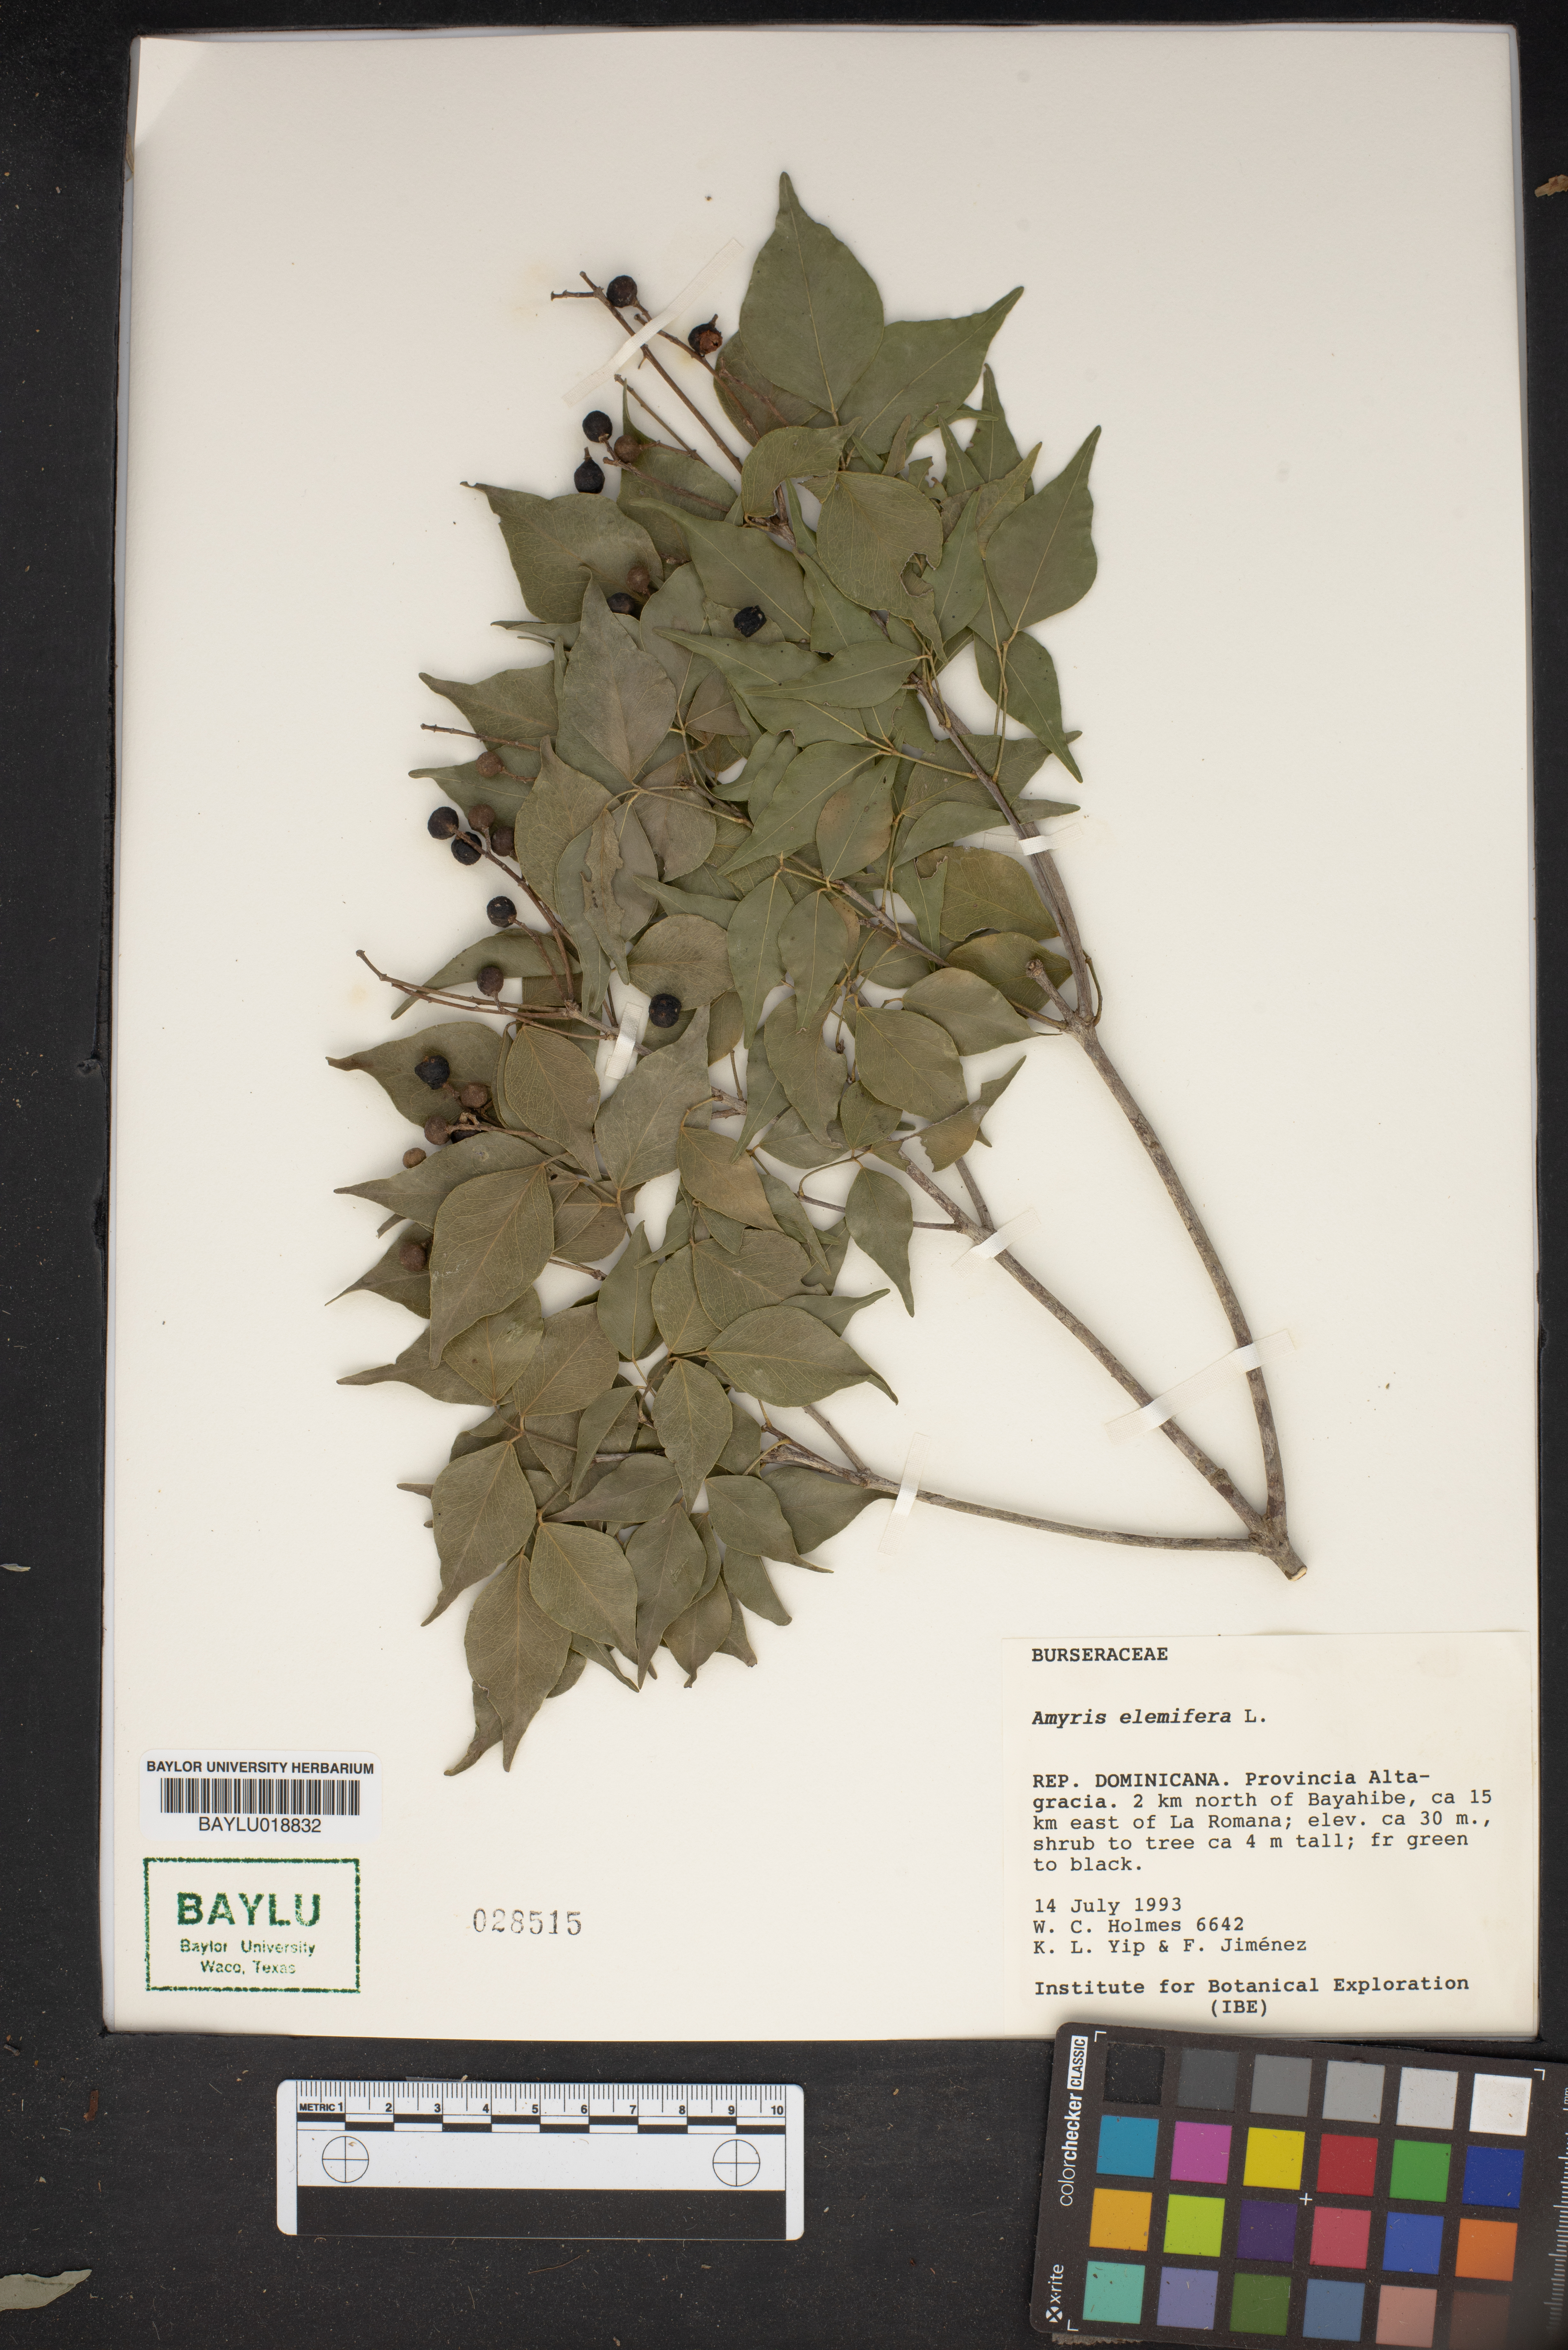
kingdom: Plantae
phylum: Tracheophyta
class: Magnoliopsida
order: Sapindales
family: Rutaceae
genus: Amyris
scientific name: Amyris elemifera
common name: Sea amyris
